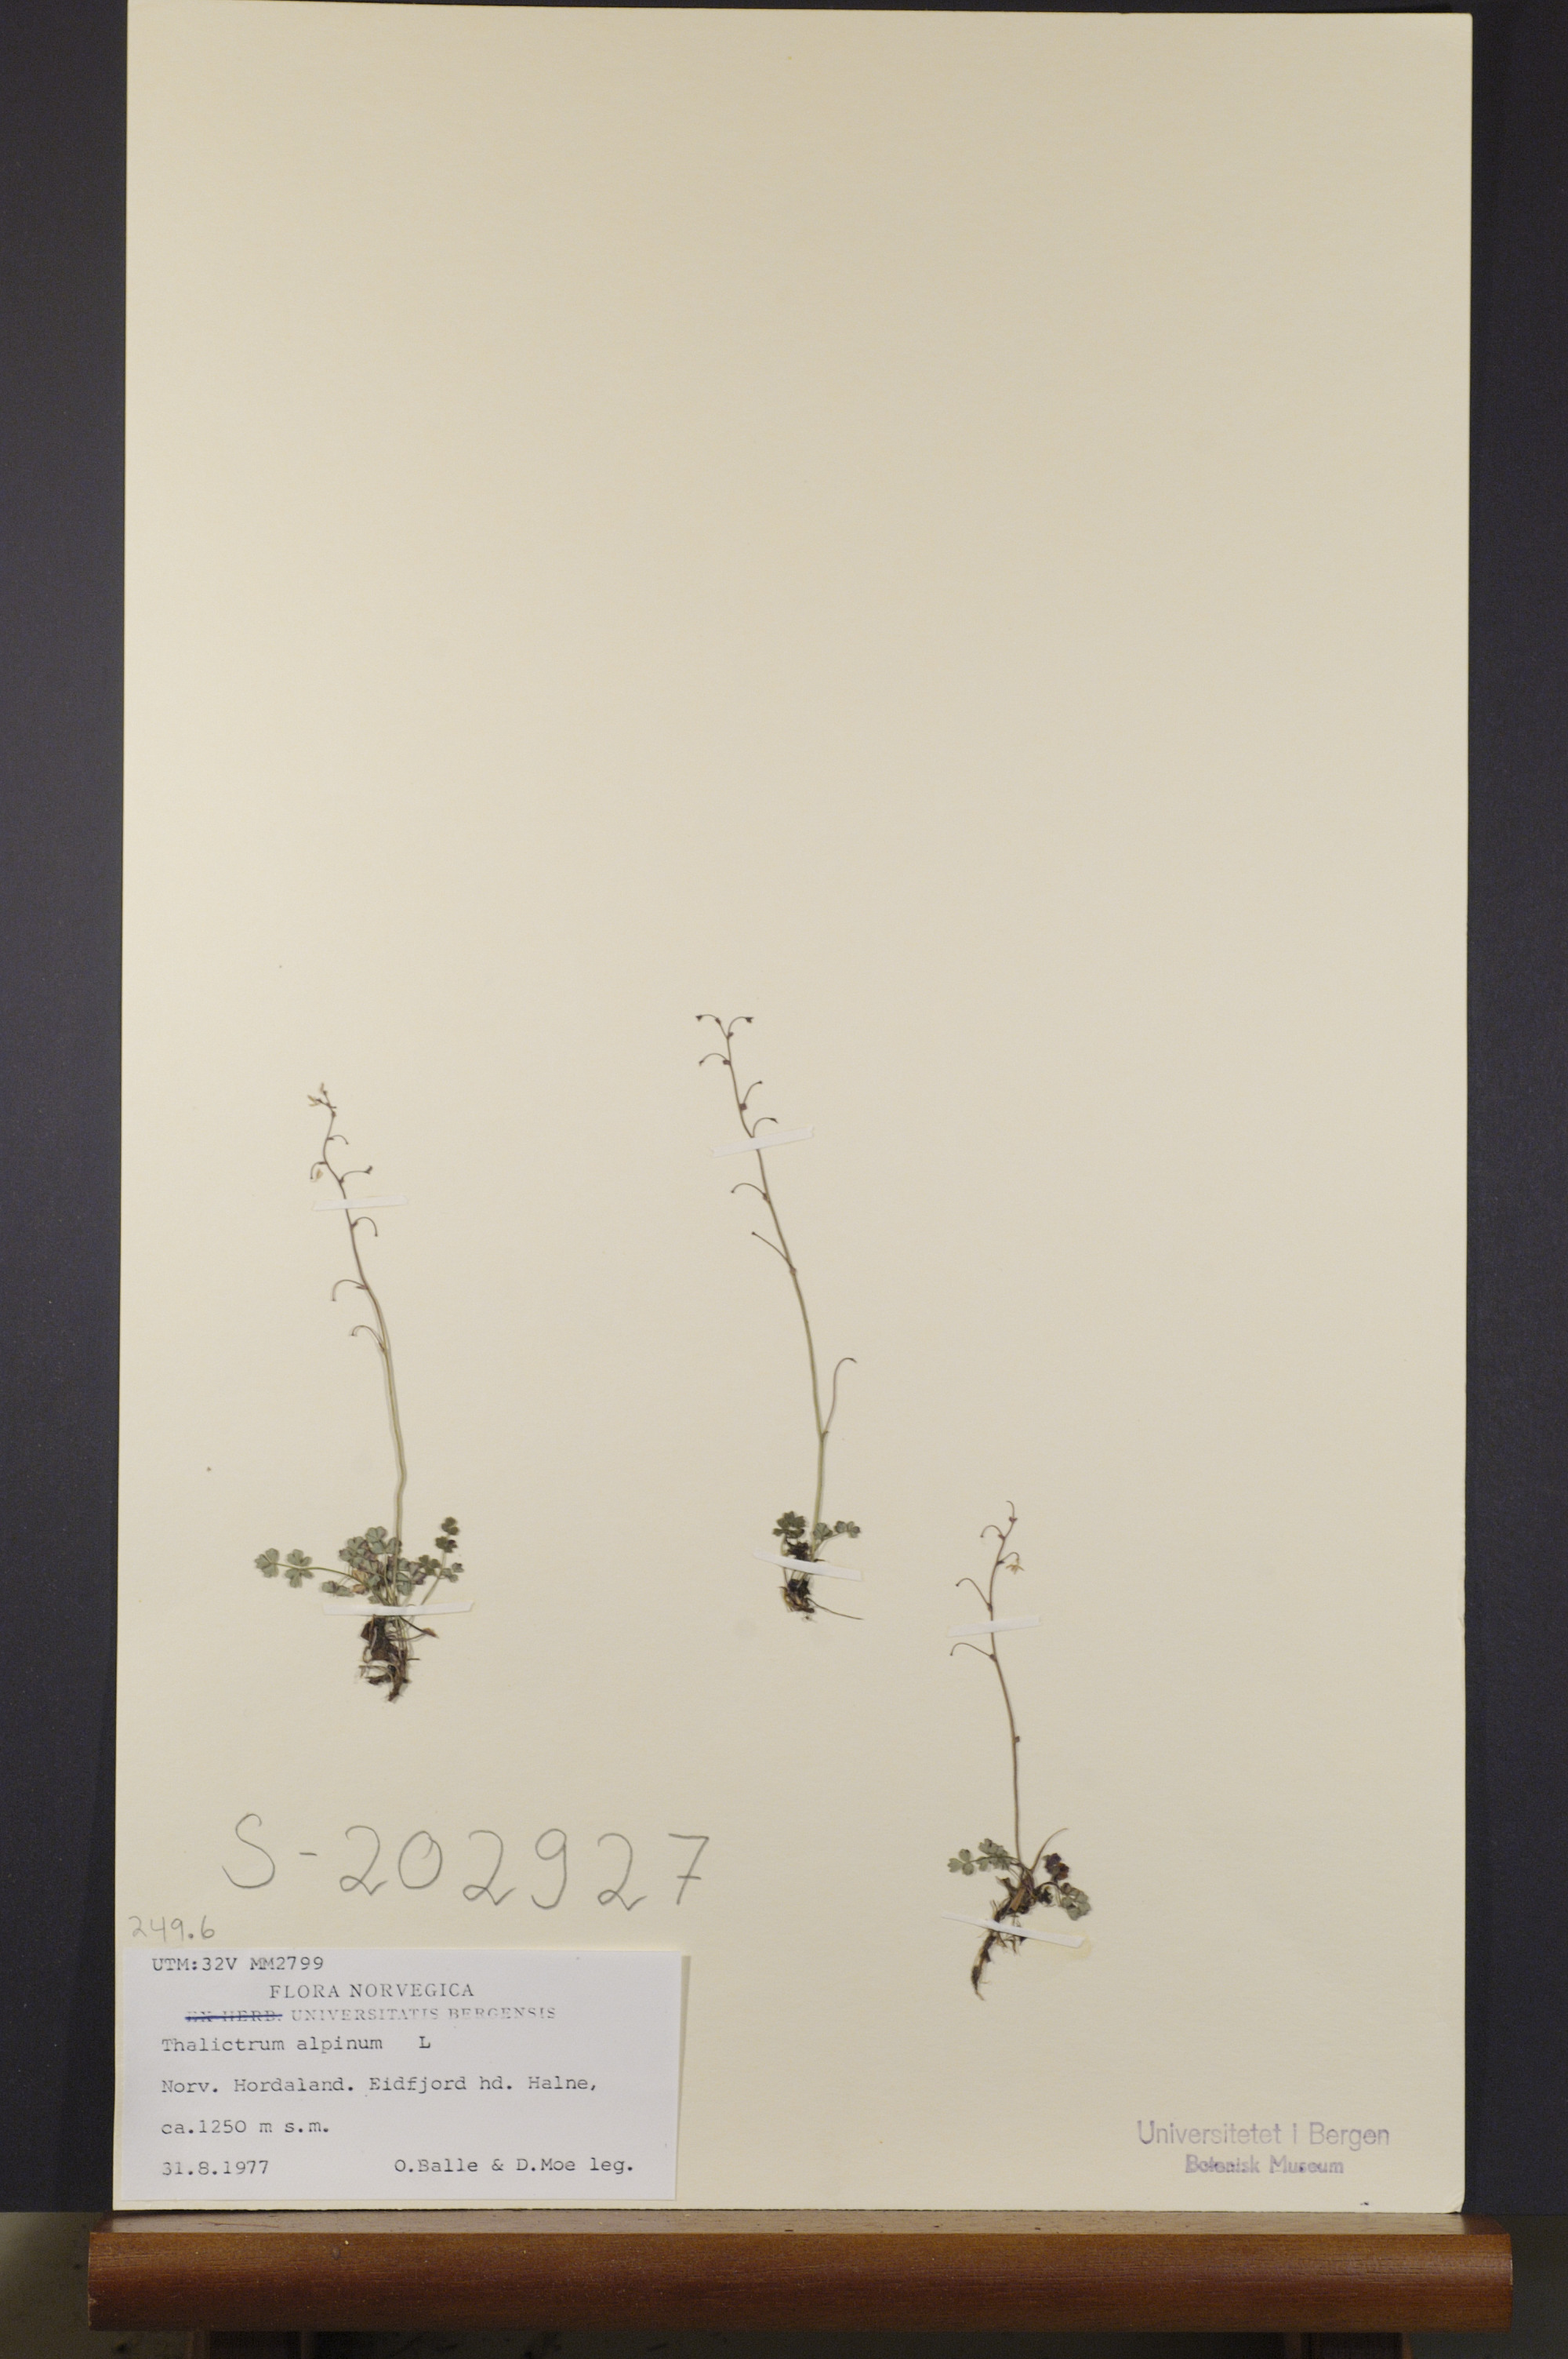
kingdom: Plantae
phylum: Tracheophyta
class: Magnoliopsida
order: Ranunculales
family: Ranunculaceae
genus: Thalictrum
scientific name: Thalictrum alpinum
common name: Alpine meadow-rue
